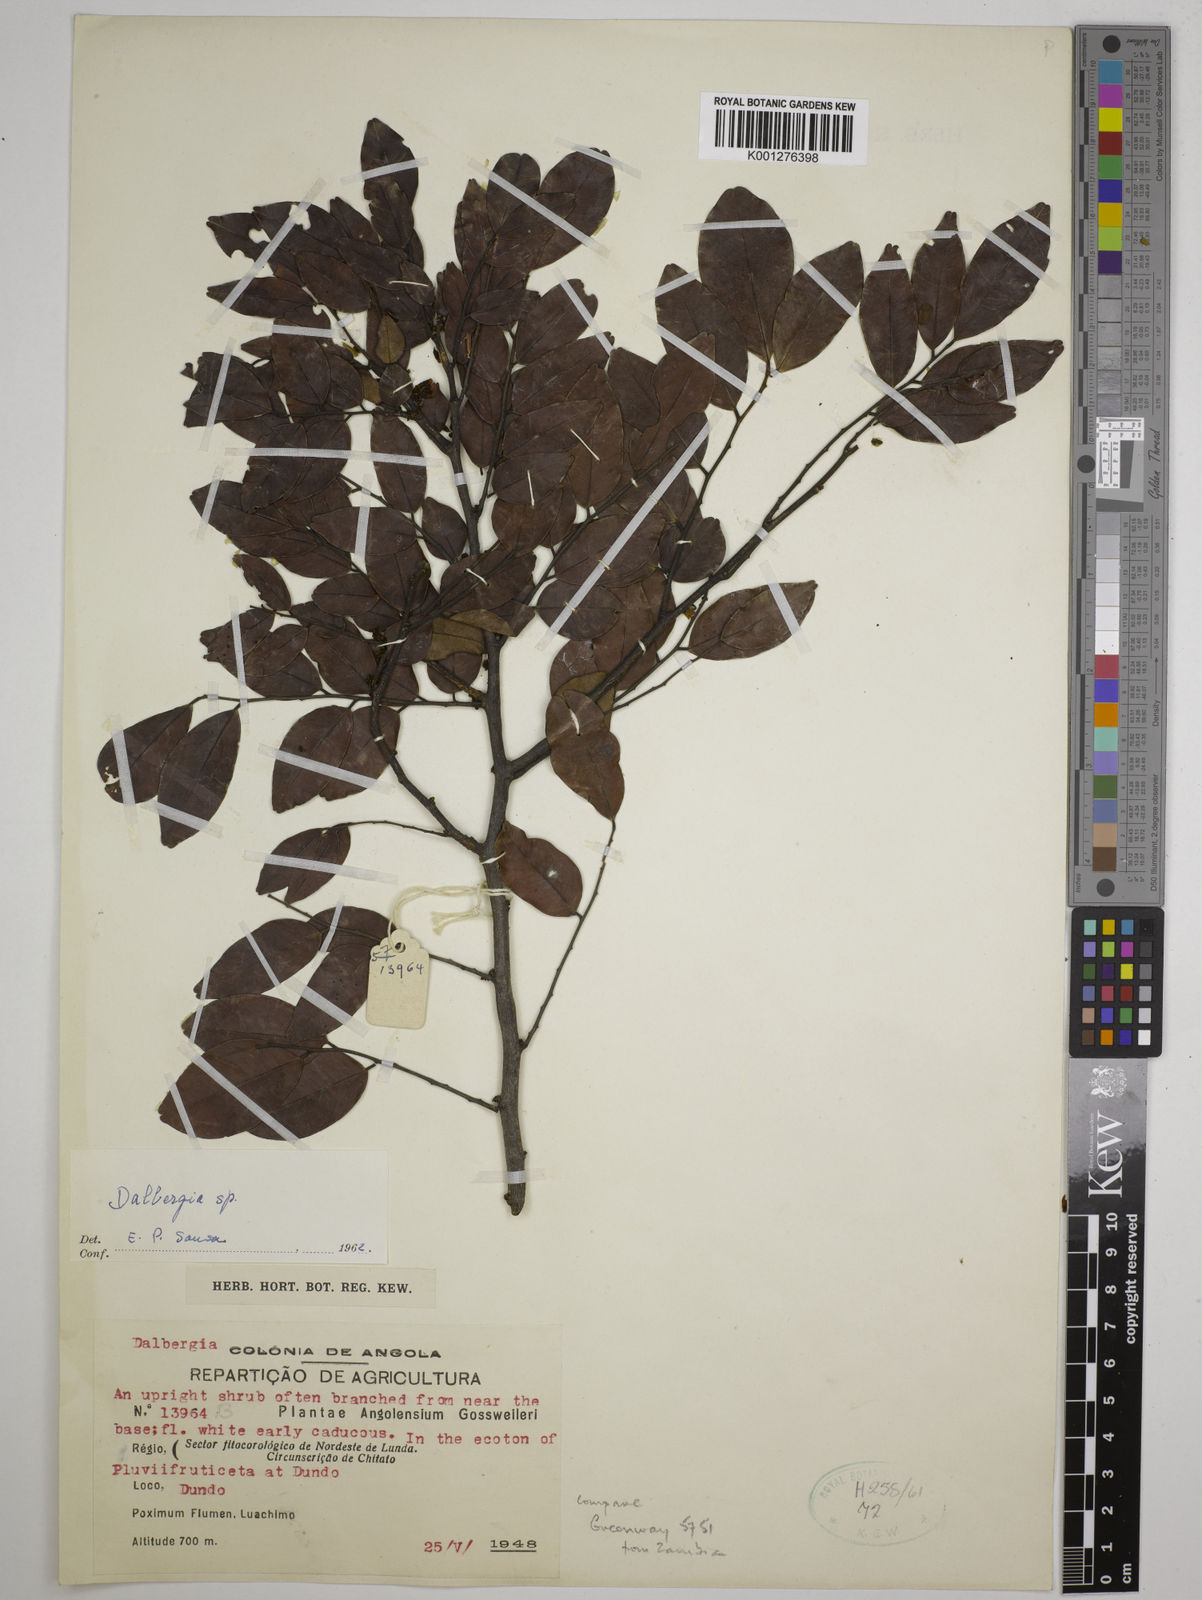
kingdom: Plantae
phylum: Tracheophyta
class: Magnoliopsida
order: Fabales
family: Fabaceae
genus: Dalbergia
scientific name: Dalbergia
